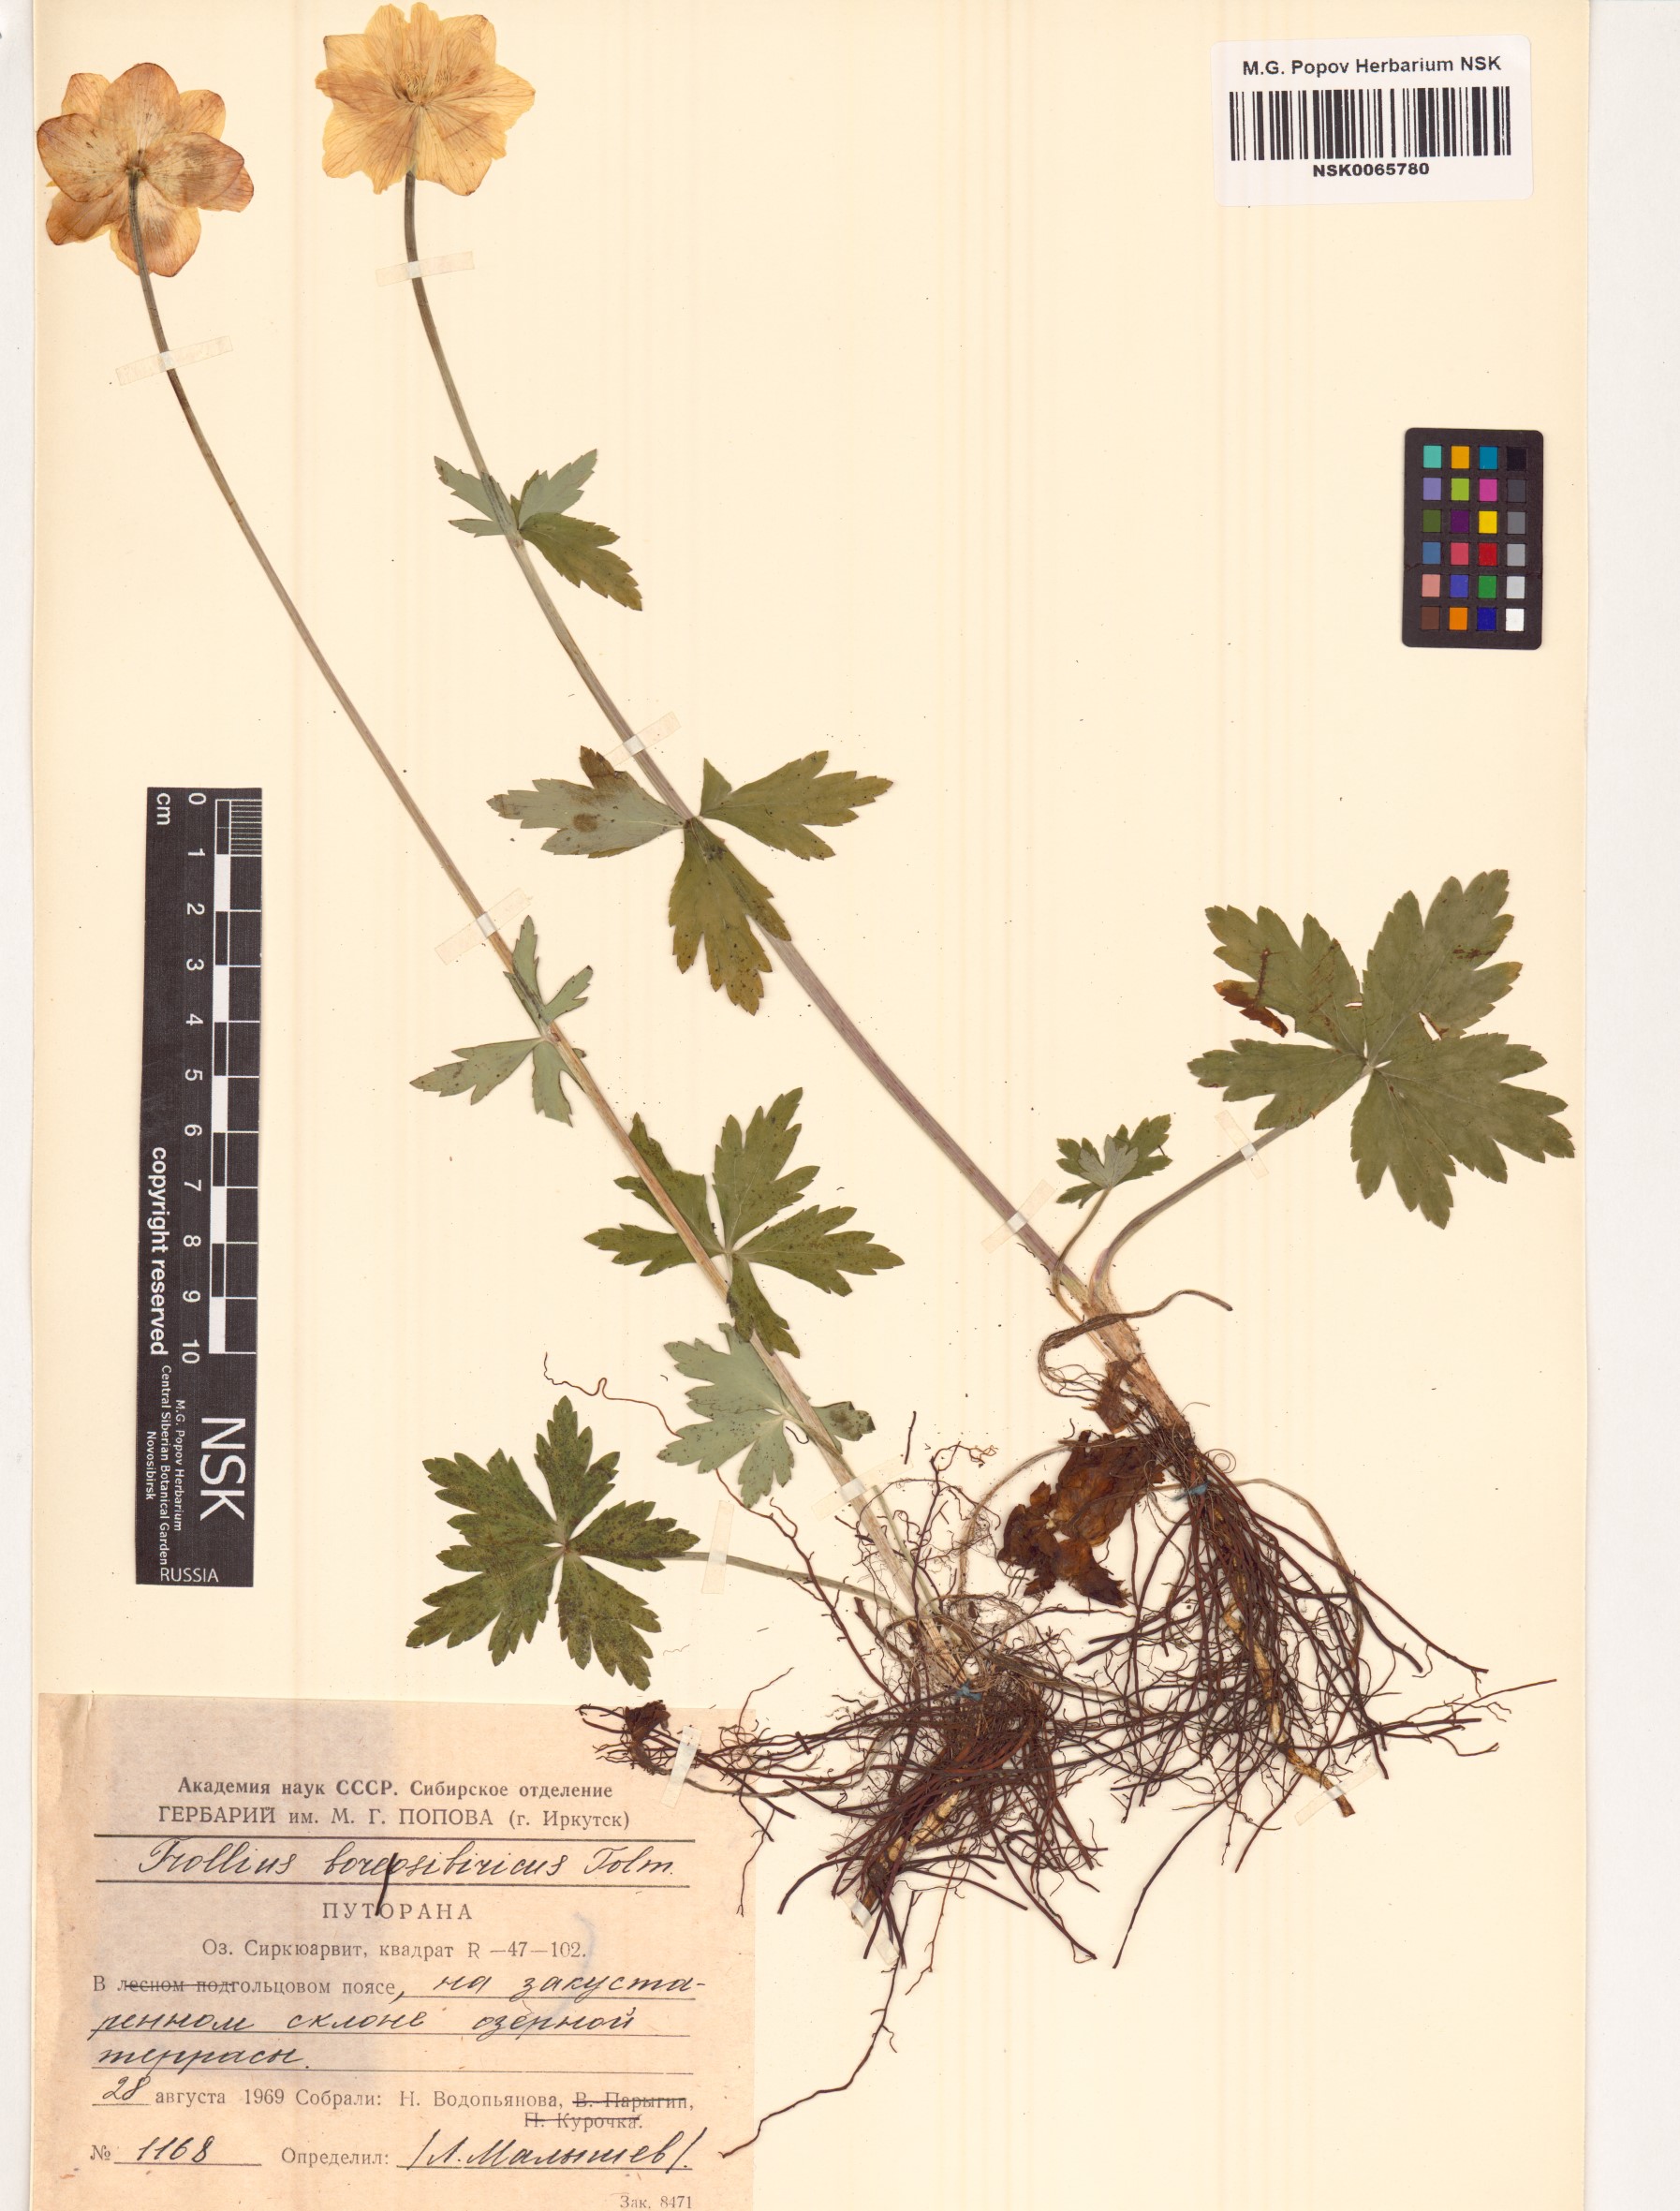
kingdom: Plantae
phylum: Tracheophyta
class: Magnoliopsida
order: Ranunculales
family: Ranunculaceae
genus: Trollius
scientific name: Trollius sibiricus
